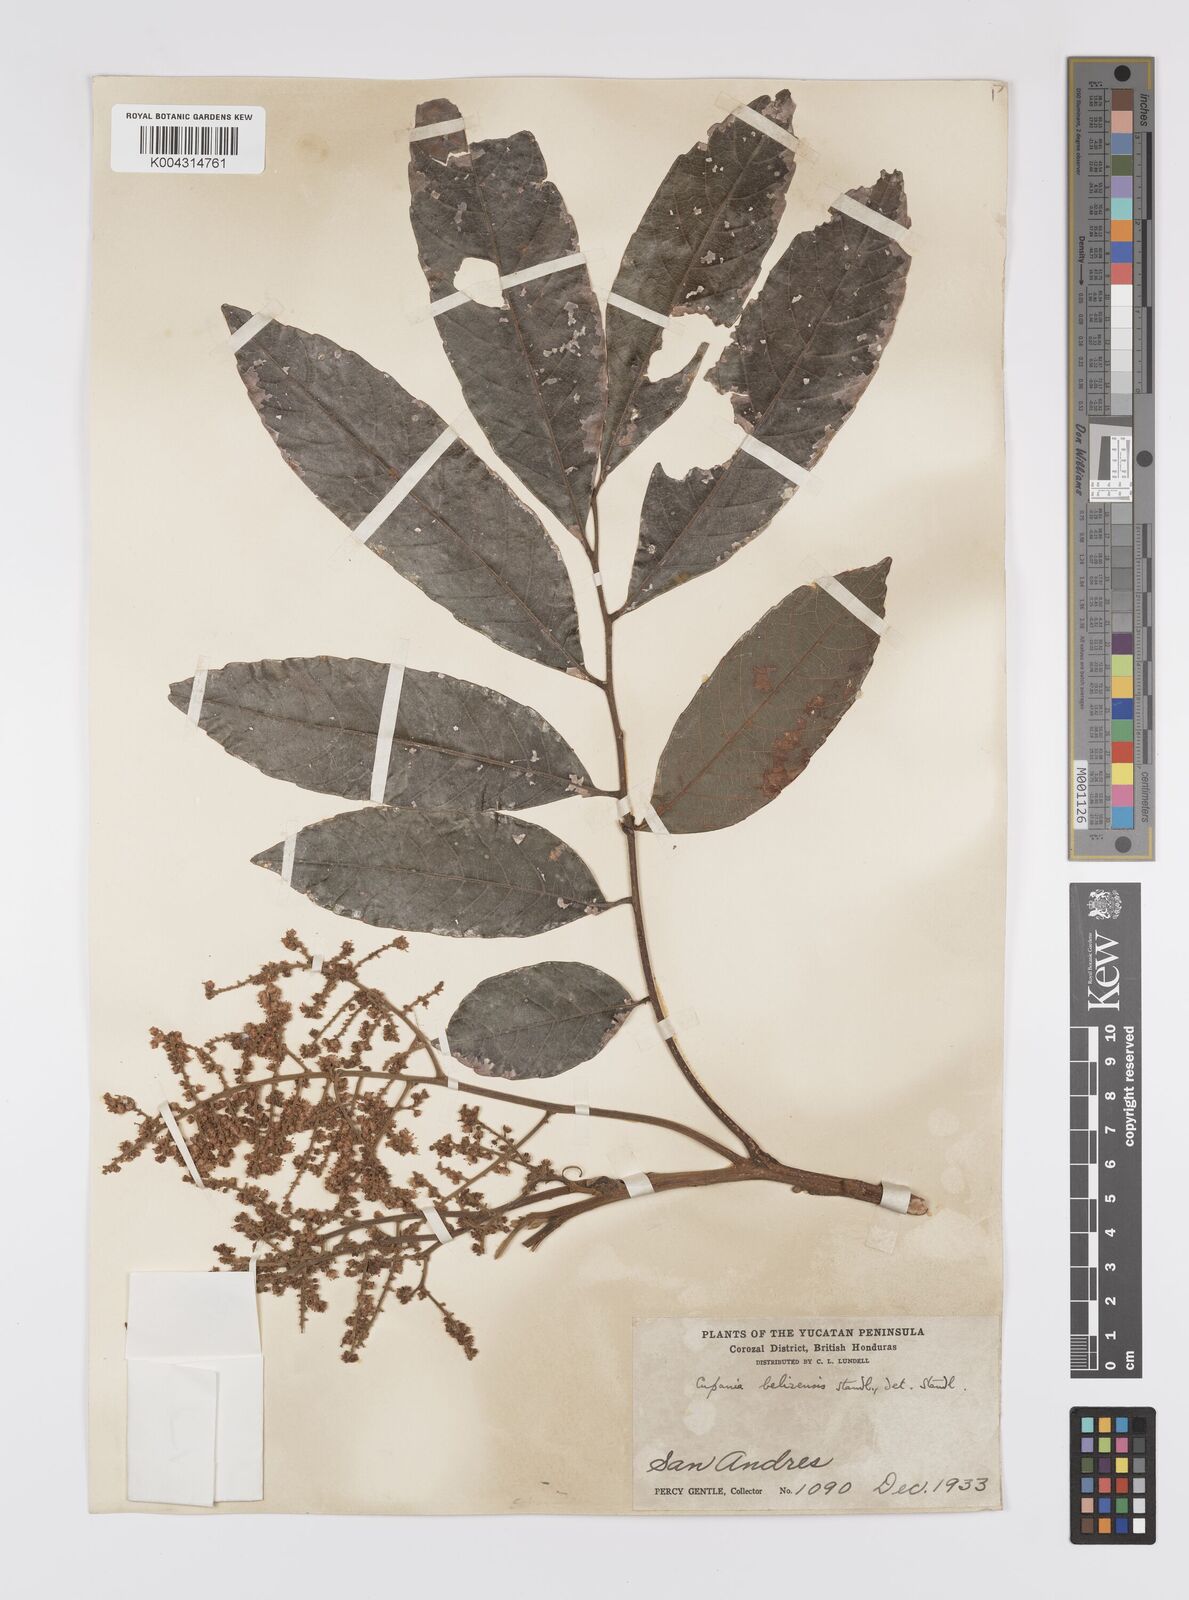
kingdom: Plantae
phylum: Tracheophyta
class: Magnoliopsida
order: Sapindales
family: Sapindaceae
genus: Cupania
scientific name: Cupania belizensis
